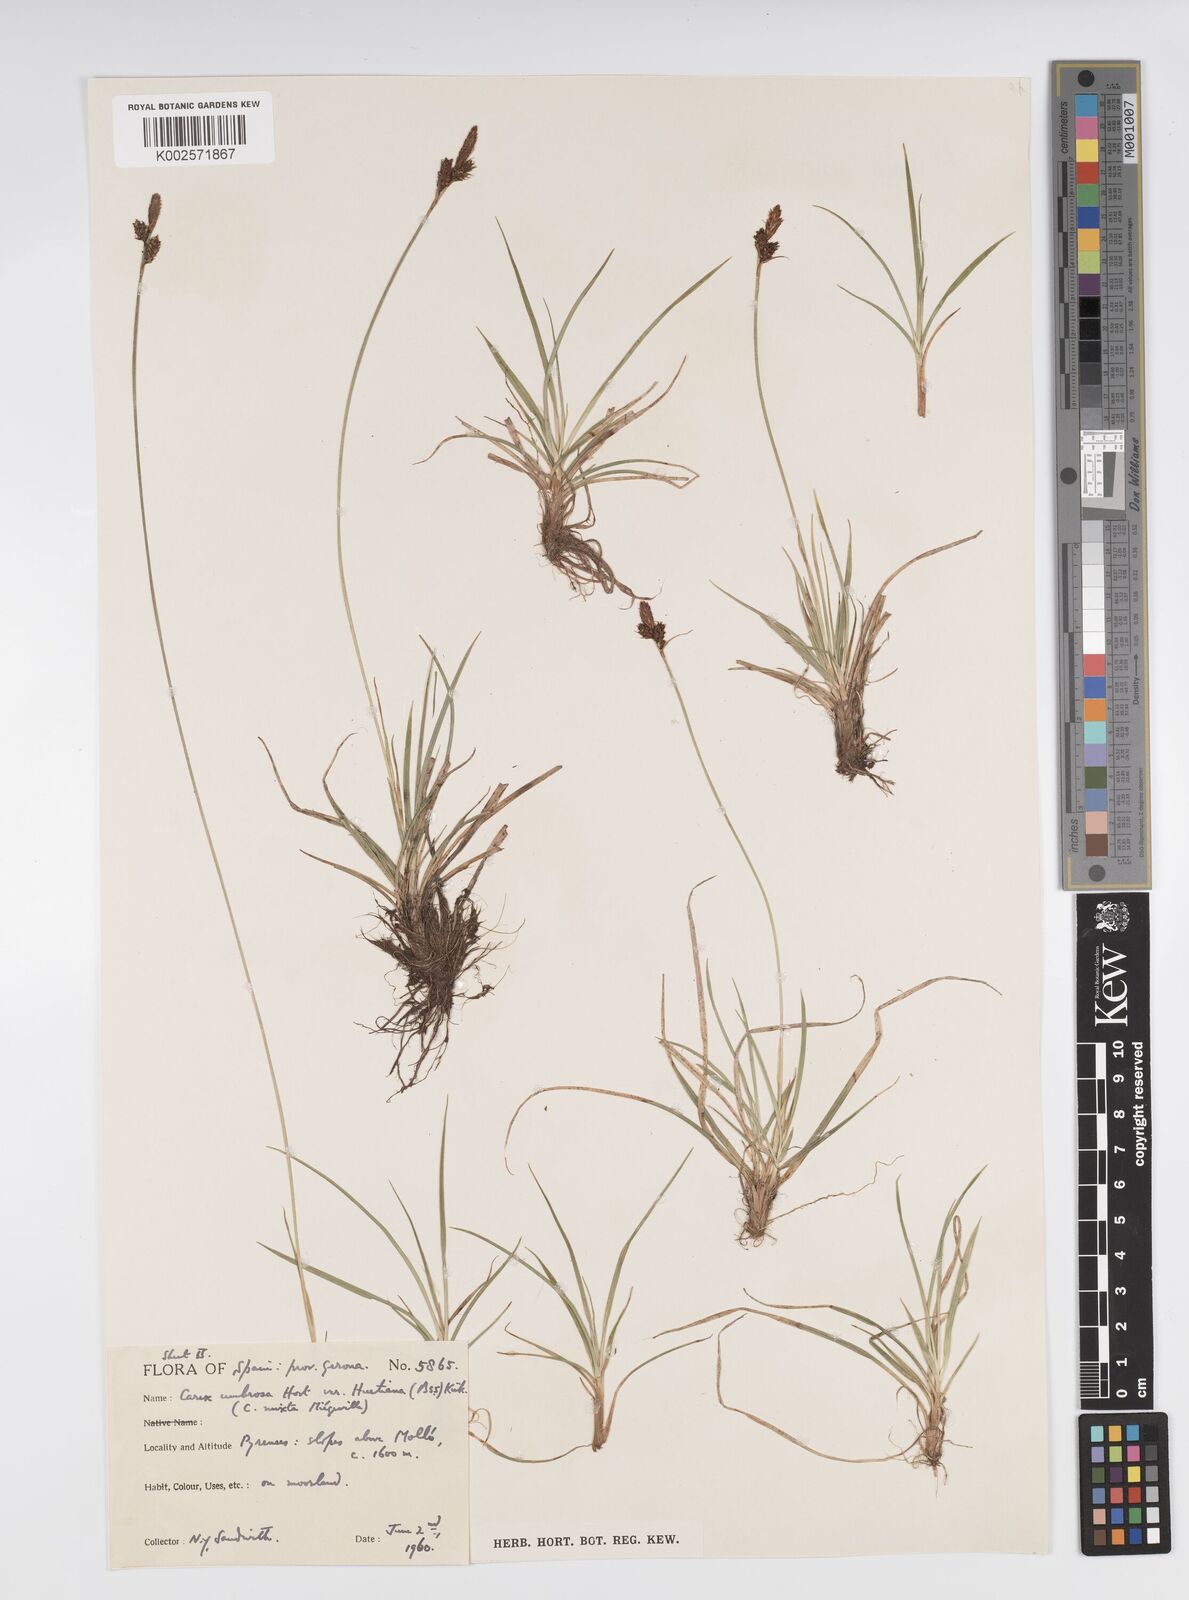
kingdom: Plantae
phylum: Tracheophyta
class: Liliopsida
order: Poales
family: Cyperaceae
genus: Carex
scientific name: Carex umbrosa
